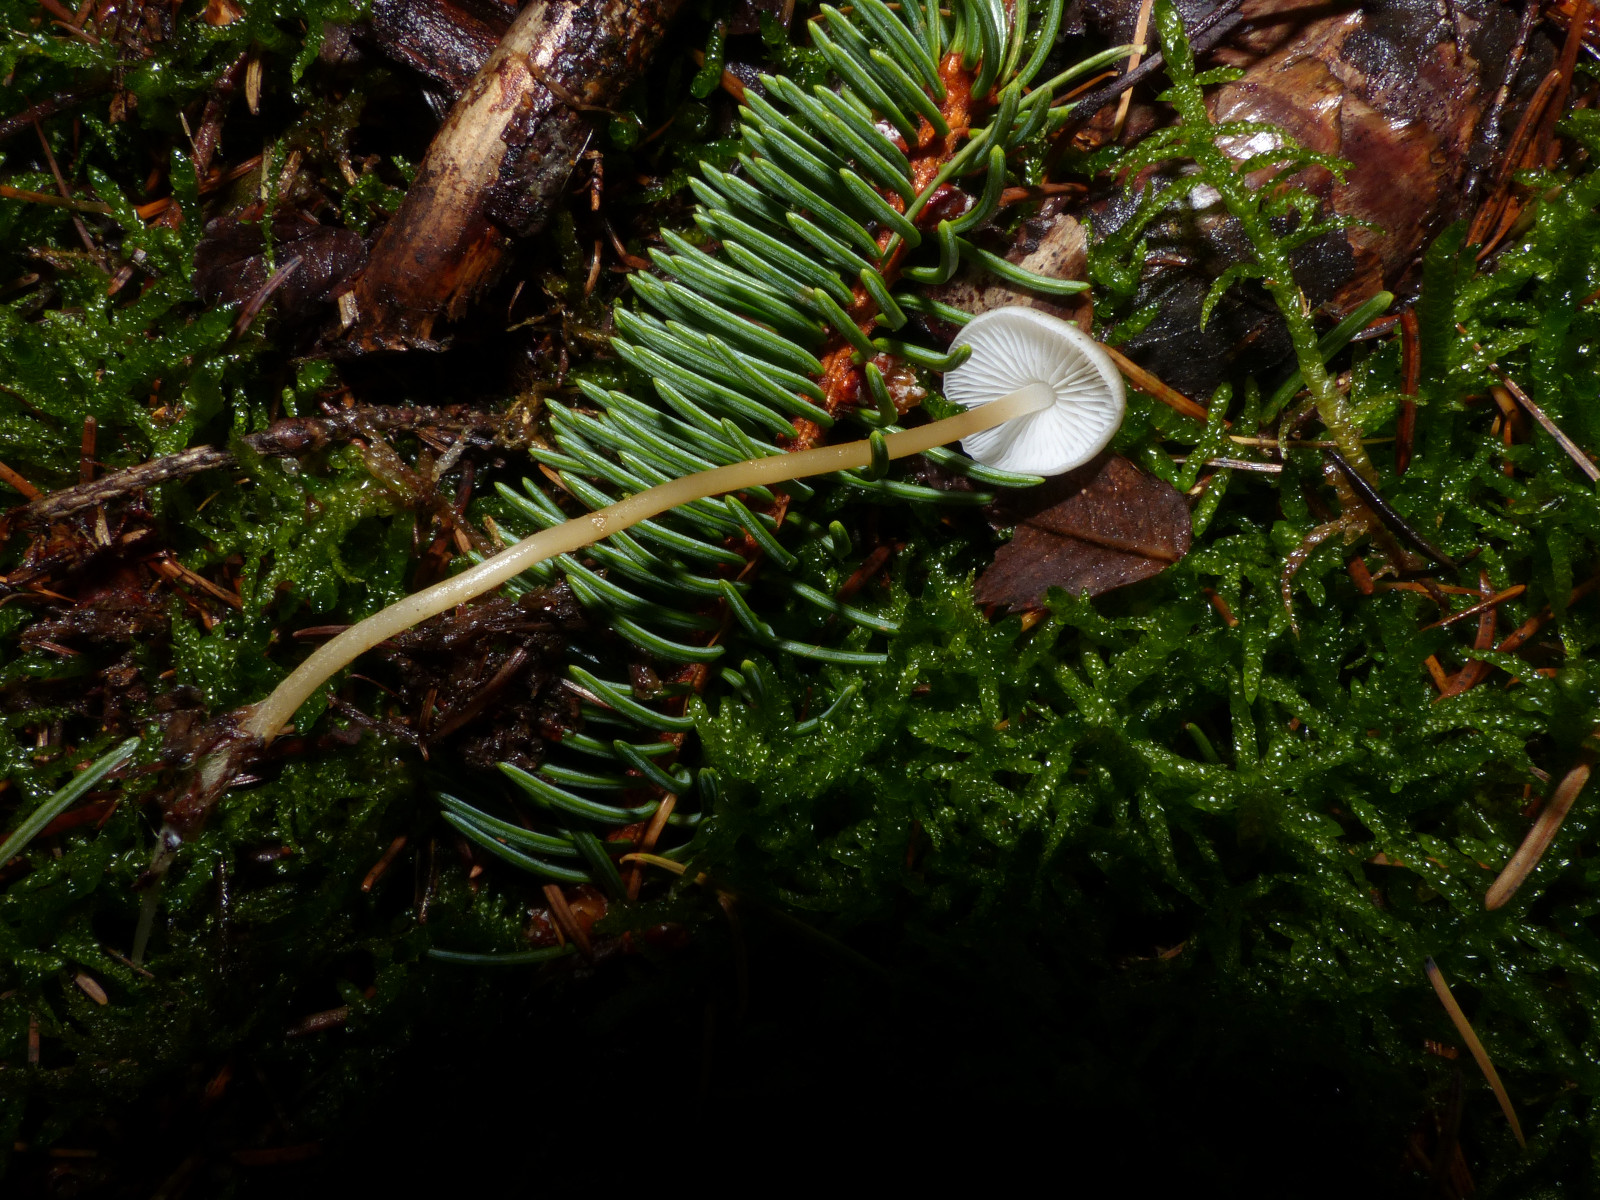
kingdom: Fungi
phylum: Basidiomycota
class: Agaricomycetes
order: Agaricales
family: Physalacriaceae
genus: Strobilurus
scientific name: Strobilurus esculentus
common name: gran-koglehat
